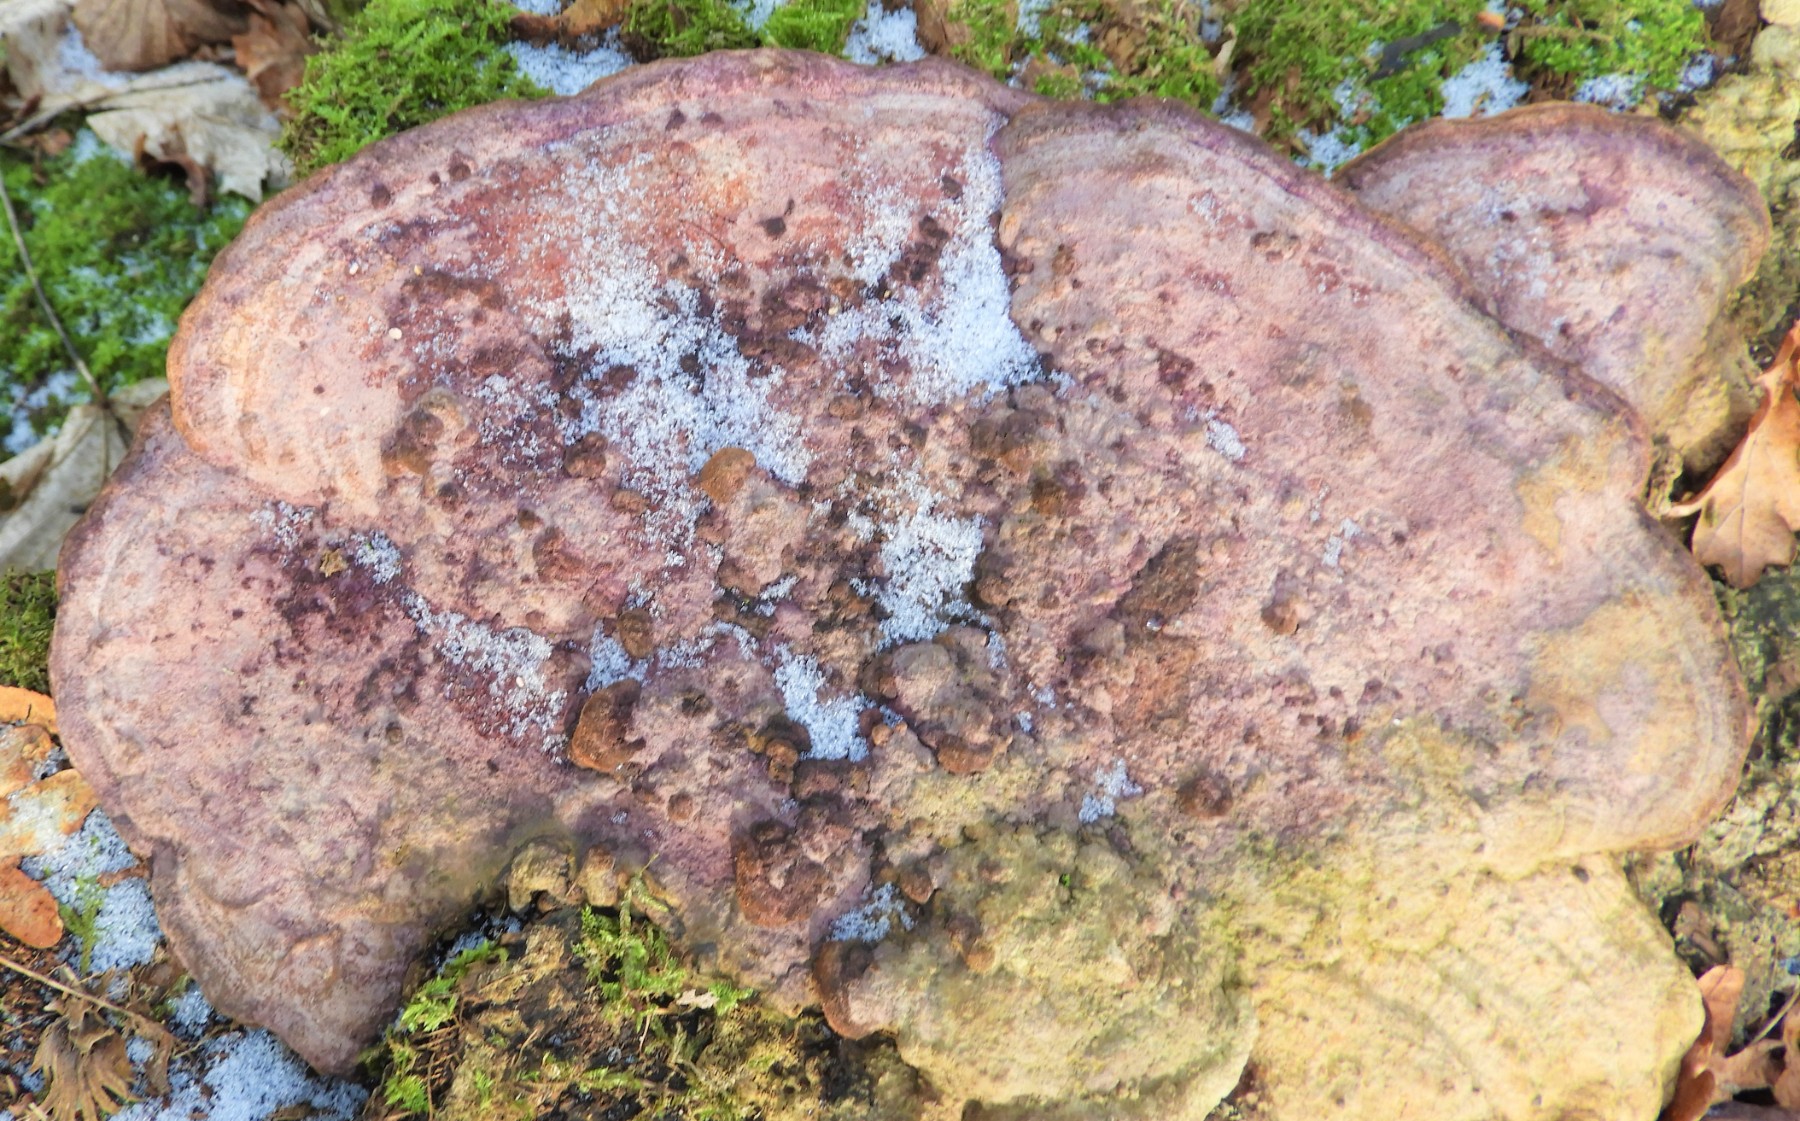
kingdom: Fungi
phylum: Basidiomycota
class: Agaricomycetes
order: Polyporales
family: Fomitopsidaceae
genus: Daedalea
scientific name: Daedalea quercina
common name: ege-labyrintsvamp
